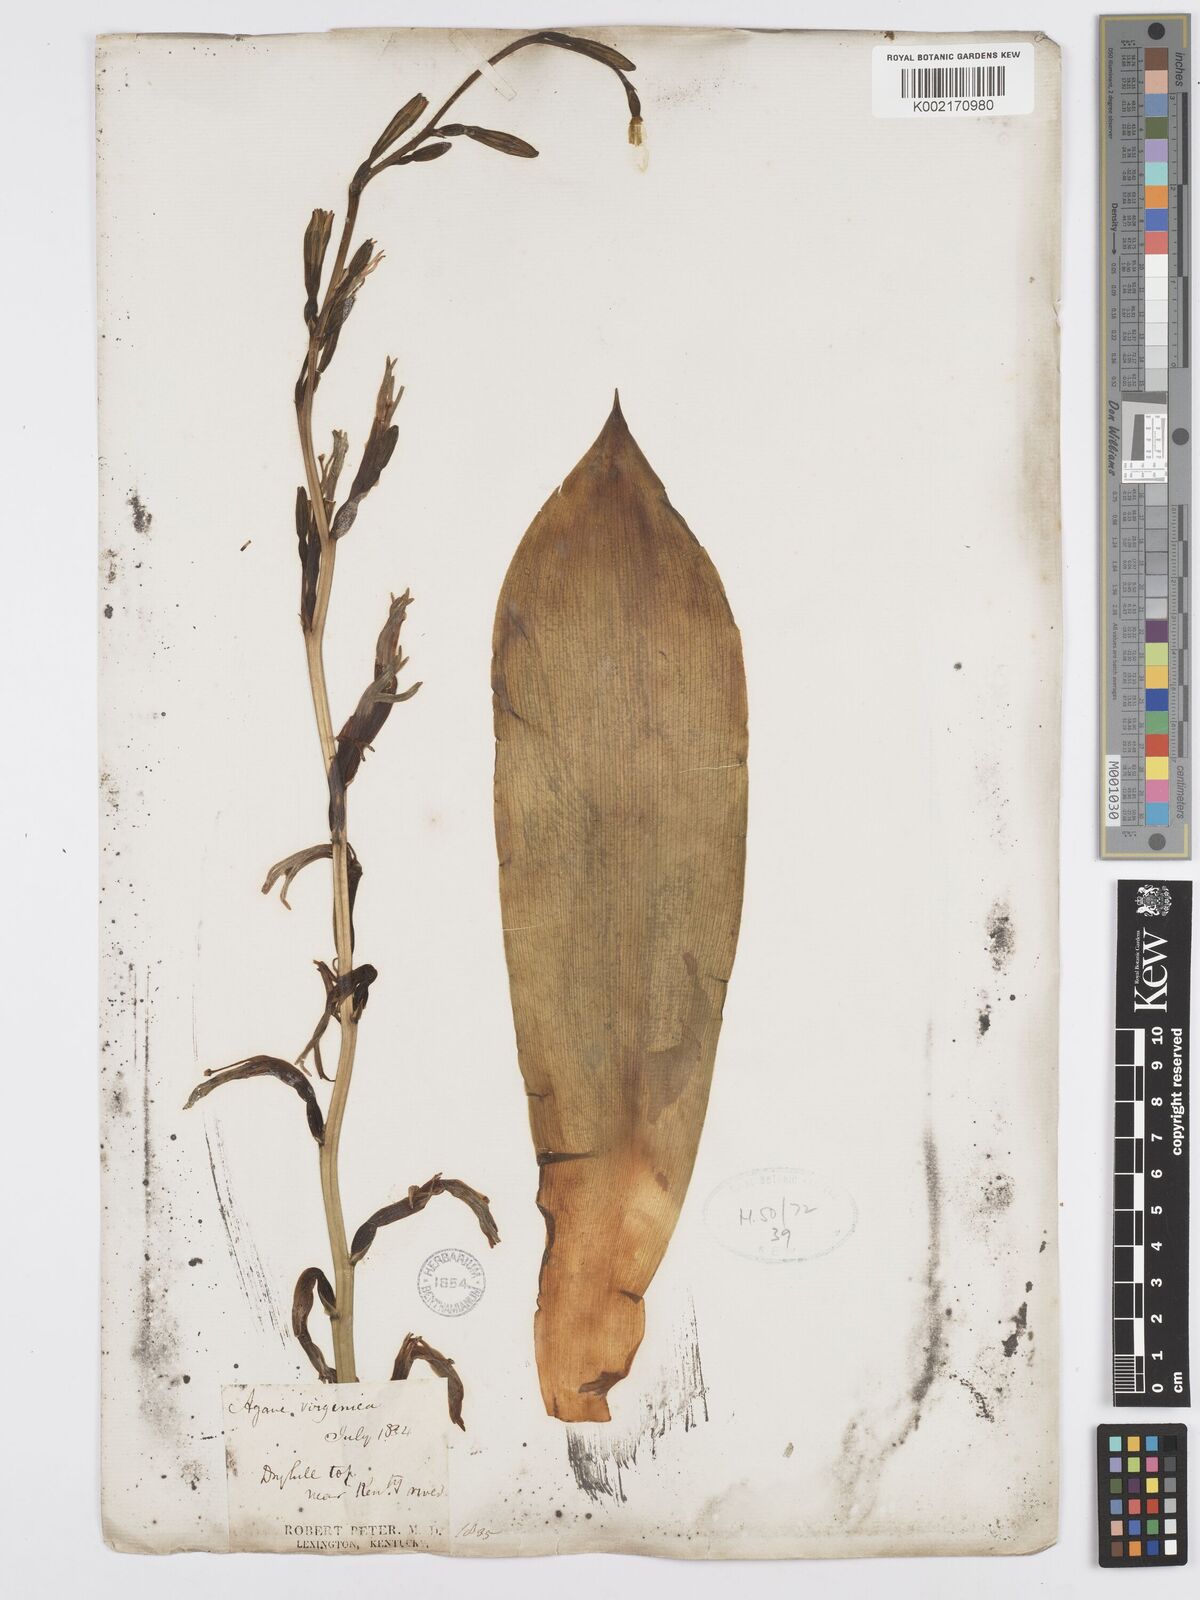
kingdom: Plantae
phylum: Tracheophyta
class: Liliopsida
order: Asparagales
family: Asparagaceae
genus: Agave
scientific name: Agave virginica
